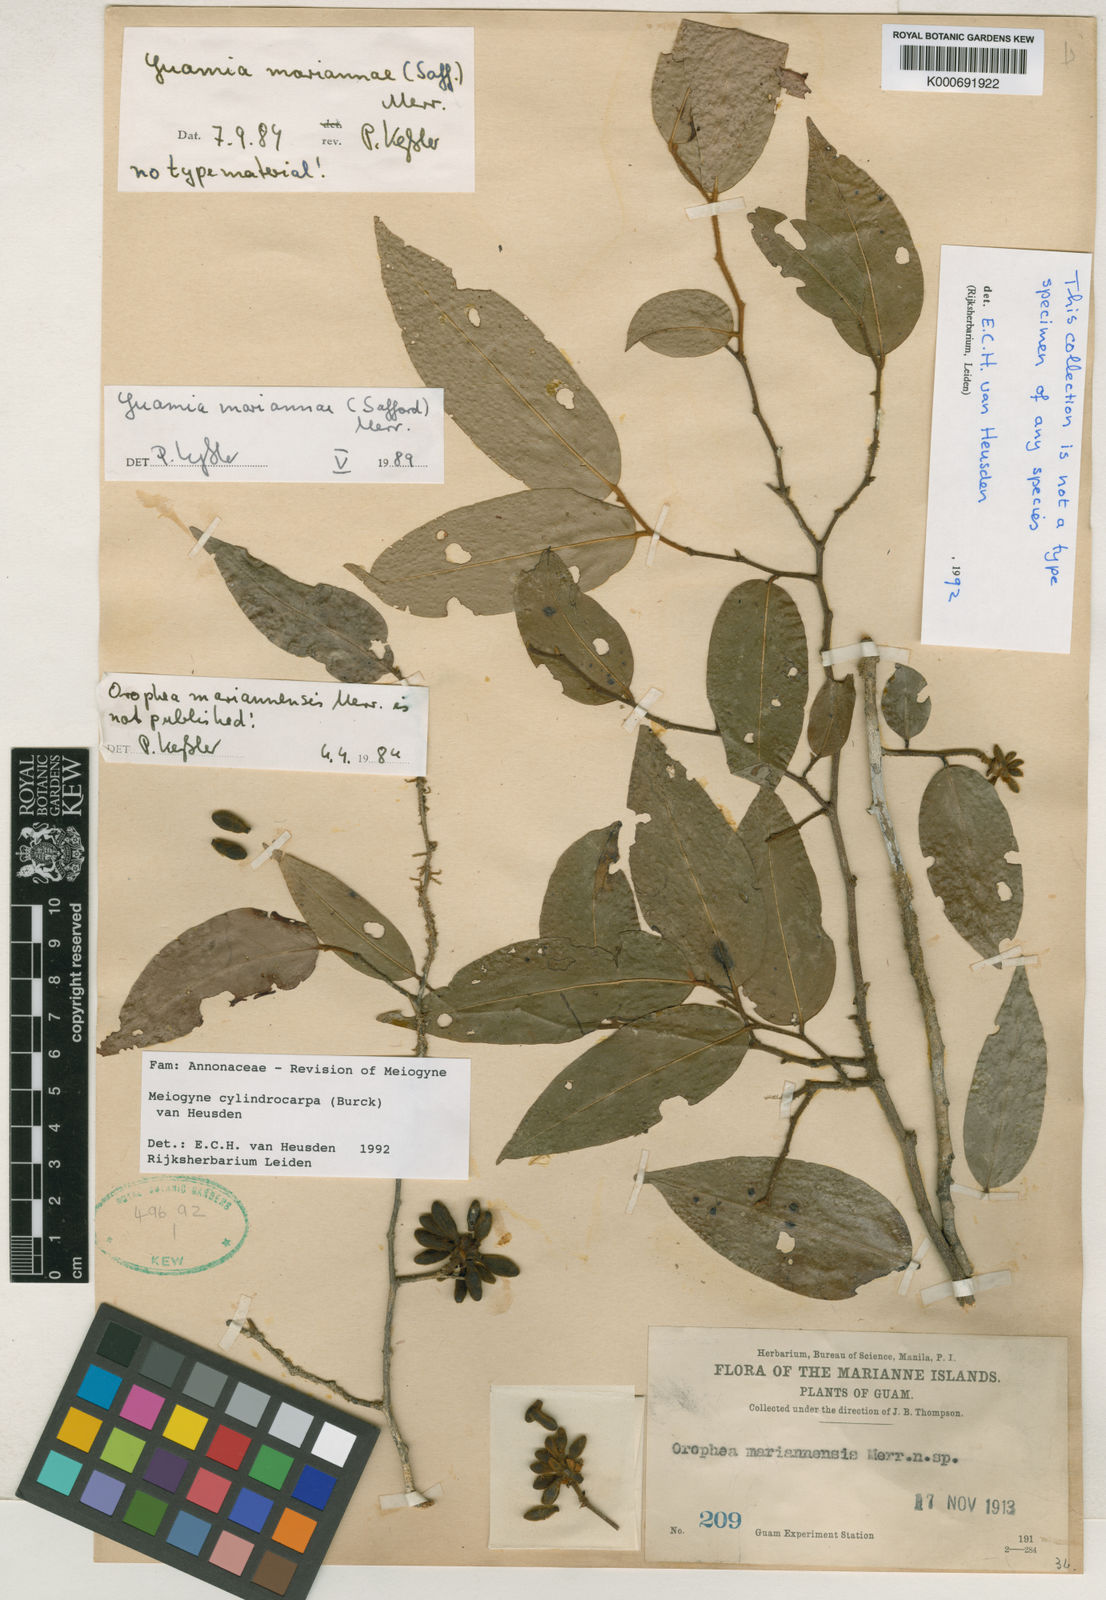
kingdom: Plantae
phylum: Tracheophyta
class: Magnoliopsida
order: Magnoliales
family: Annonaceae
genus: Meiogyne
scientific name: Meiogyne cylindrocarpa
